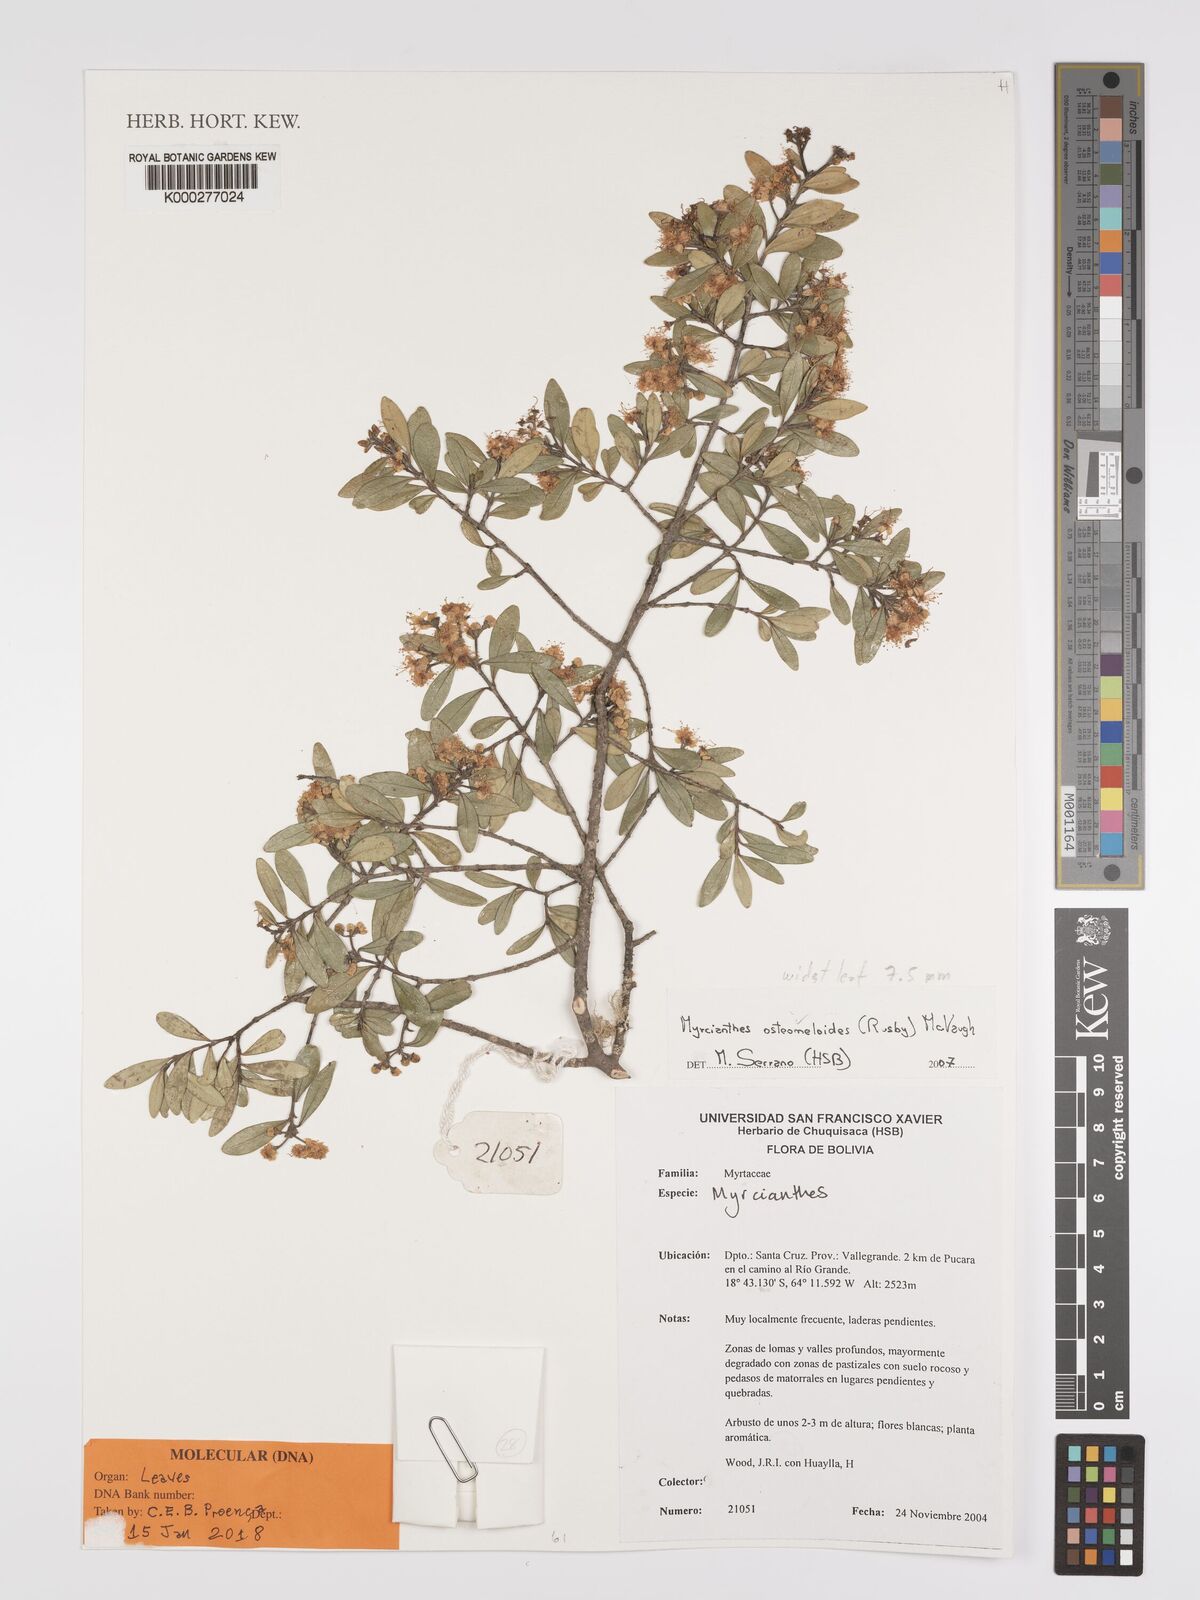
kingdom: Plantae
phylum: Tracheophyta
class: Magnoliopsida
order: Myrtales
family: Myrtaceae
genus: Myrcianthes
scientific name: Myrcianthes osteomeloides
